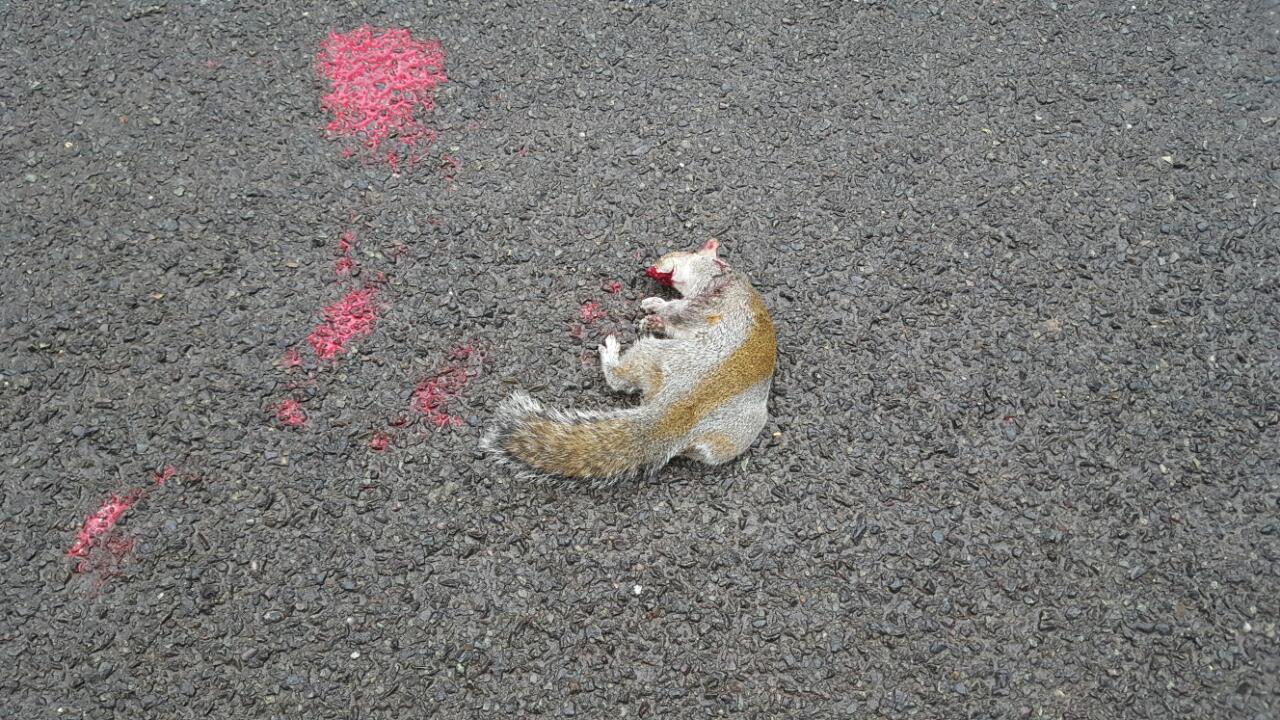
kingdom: Animalia
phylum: Chordata
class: Mammalia
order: Rodentia
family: Sciuridae
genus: Sciurus
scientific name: Sciurus carolinensis
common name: Eastern gray squirrel
